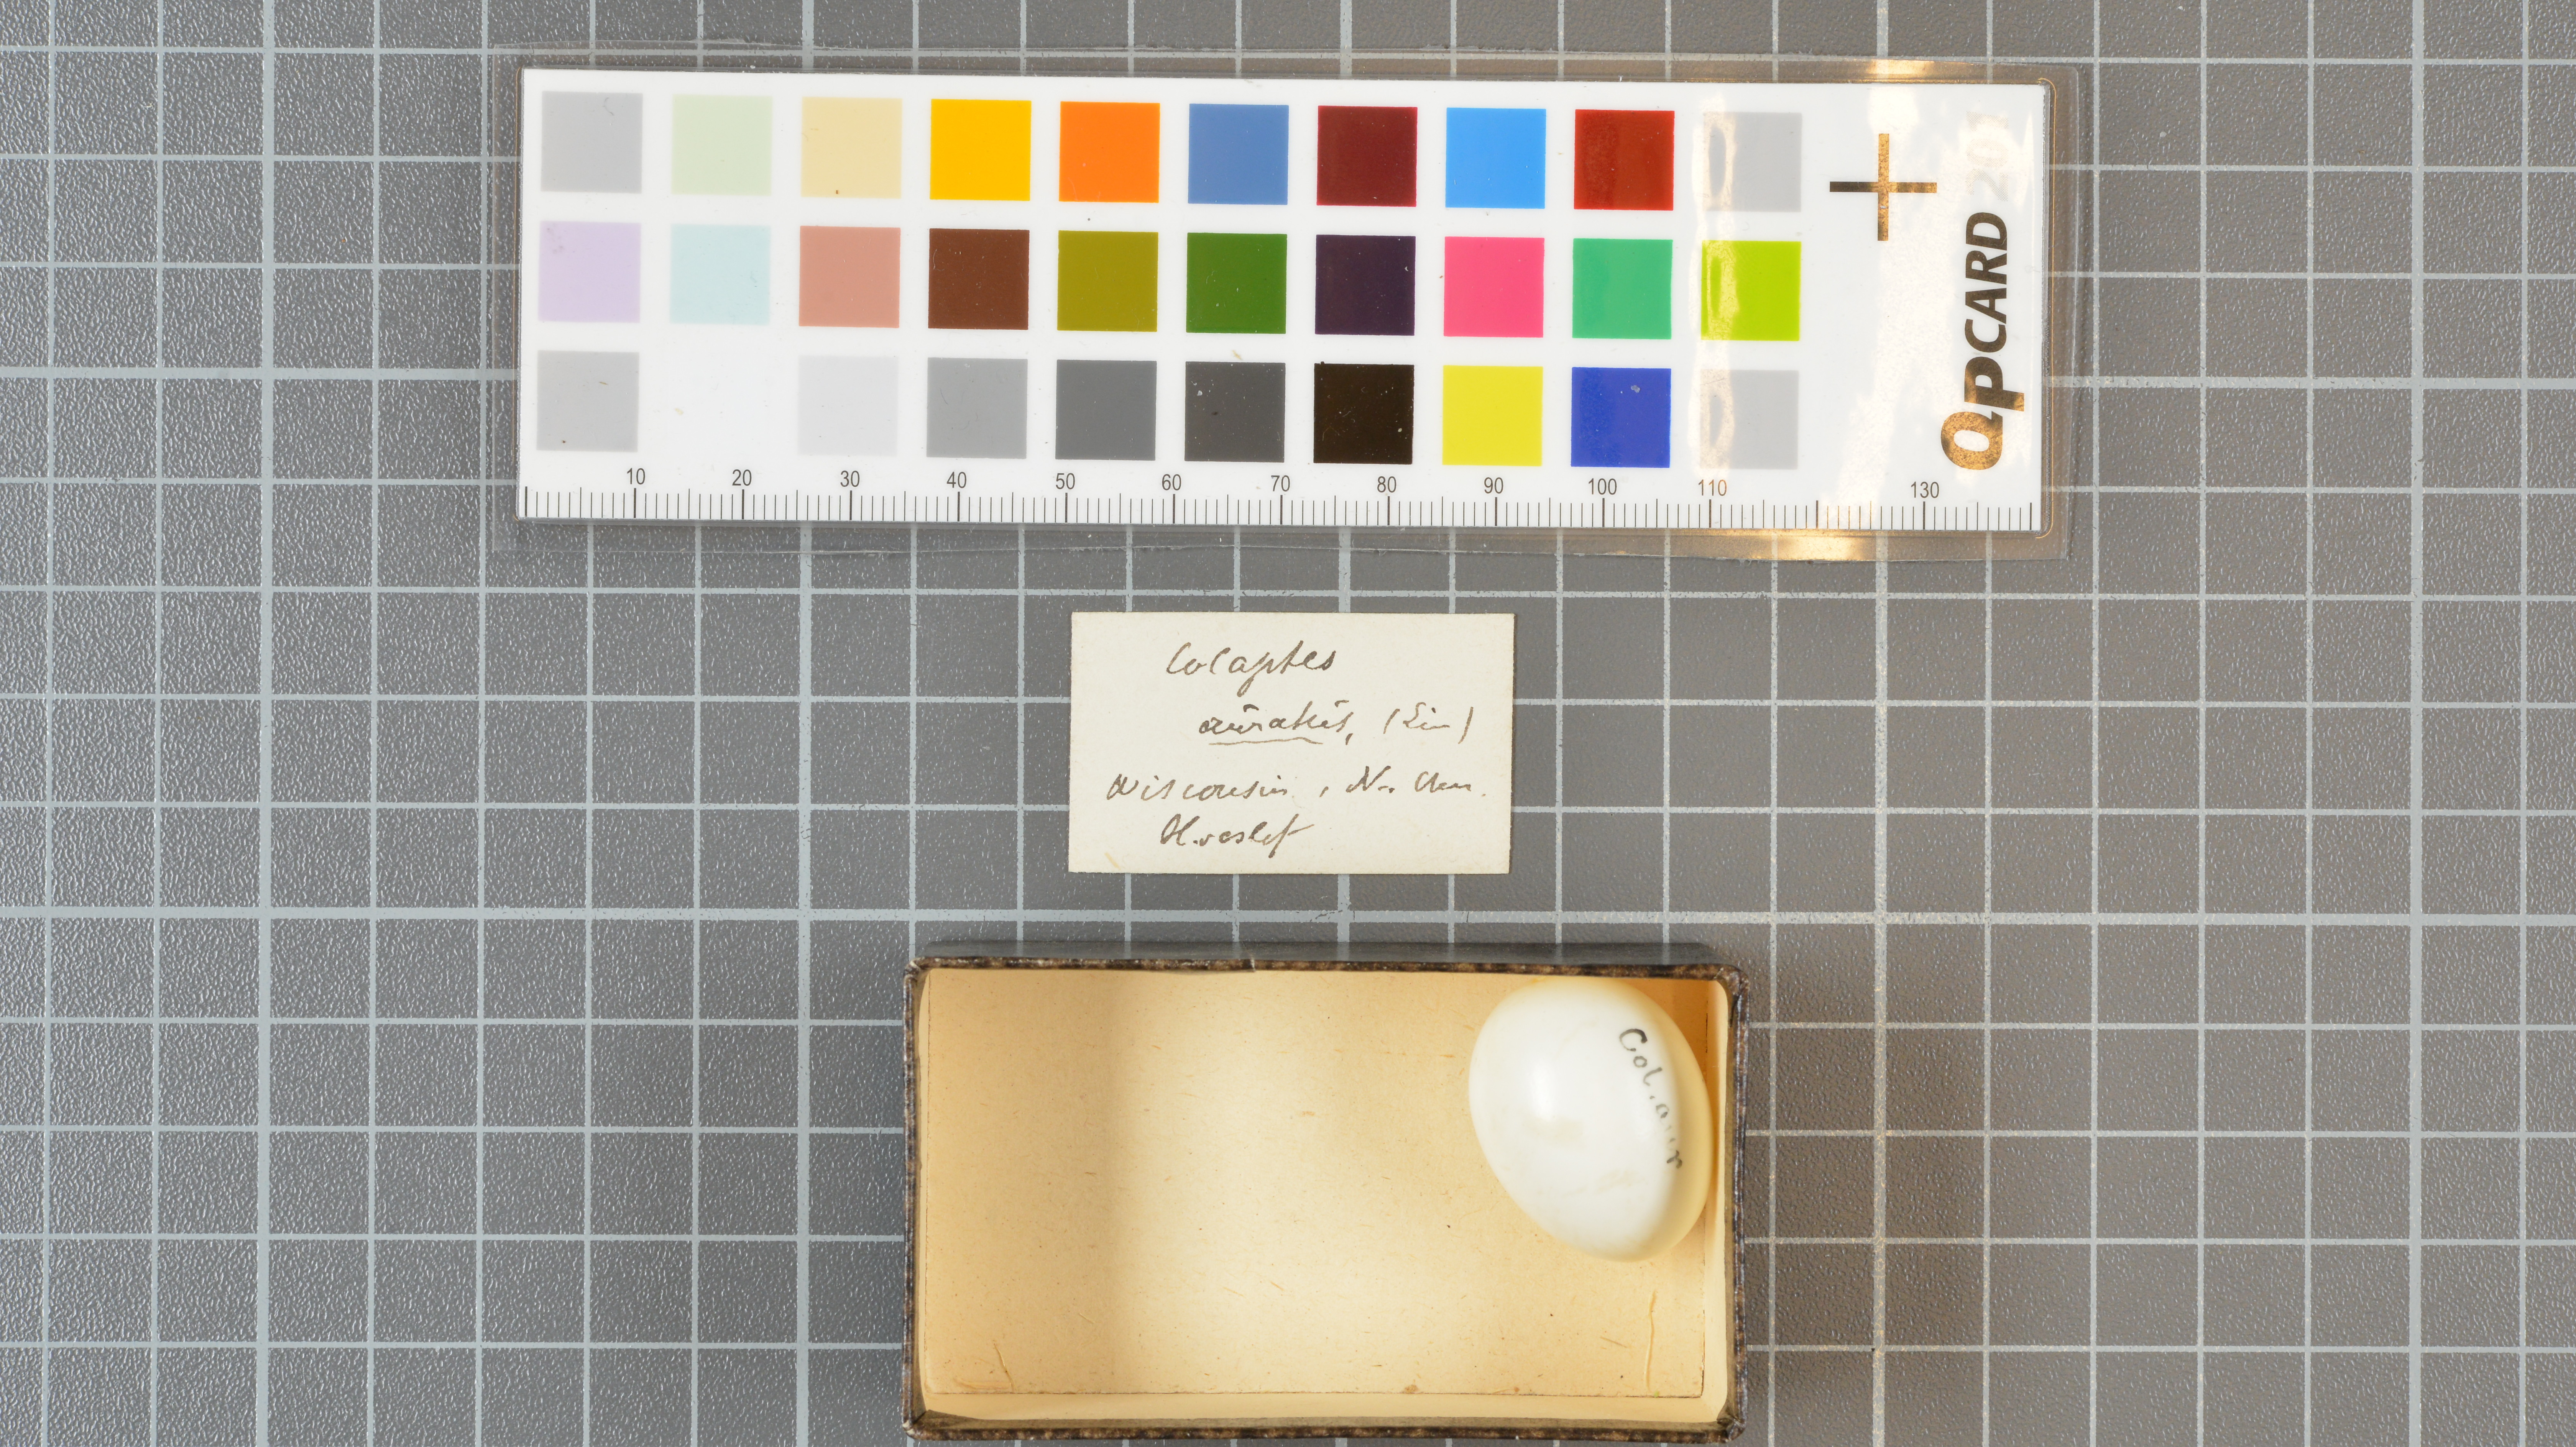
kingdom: Animalia
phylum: Chordata
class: Aves
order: Piciformes
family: Picidae
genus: Colaptes
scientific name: Colaptes auratus
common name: Northern flicker
